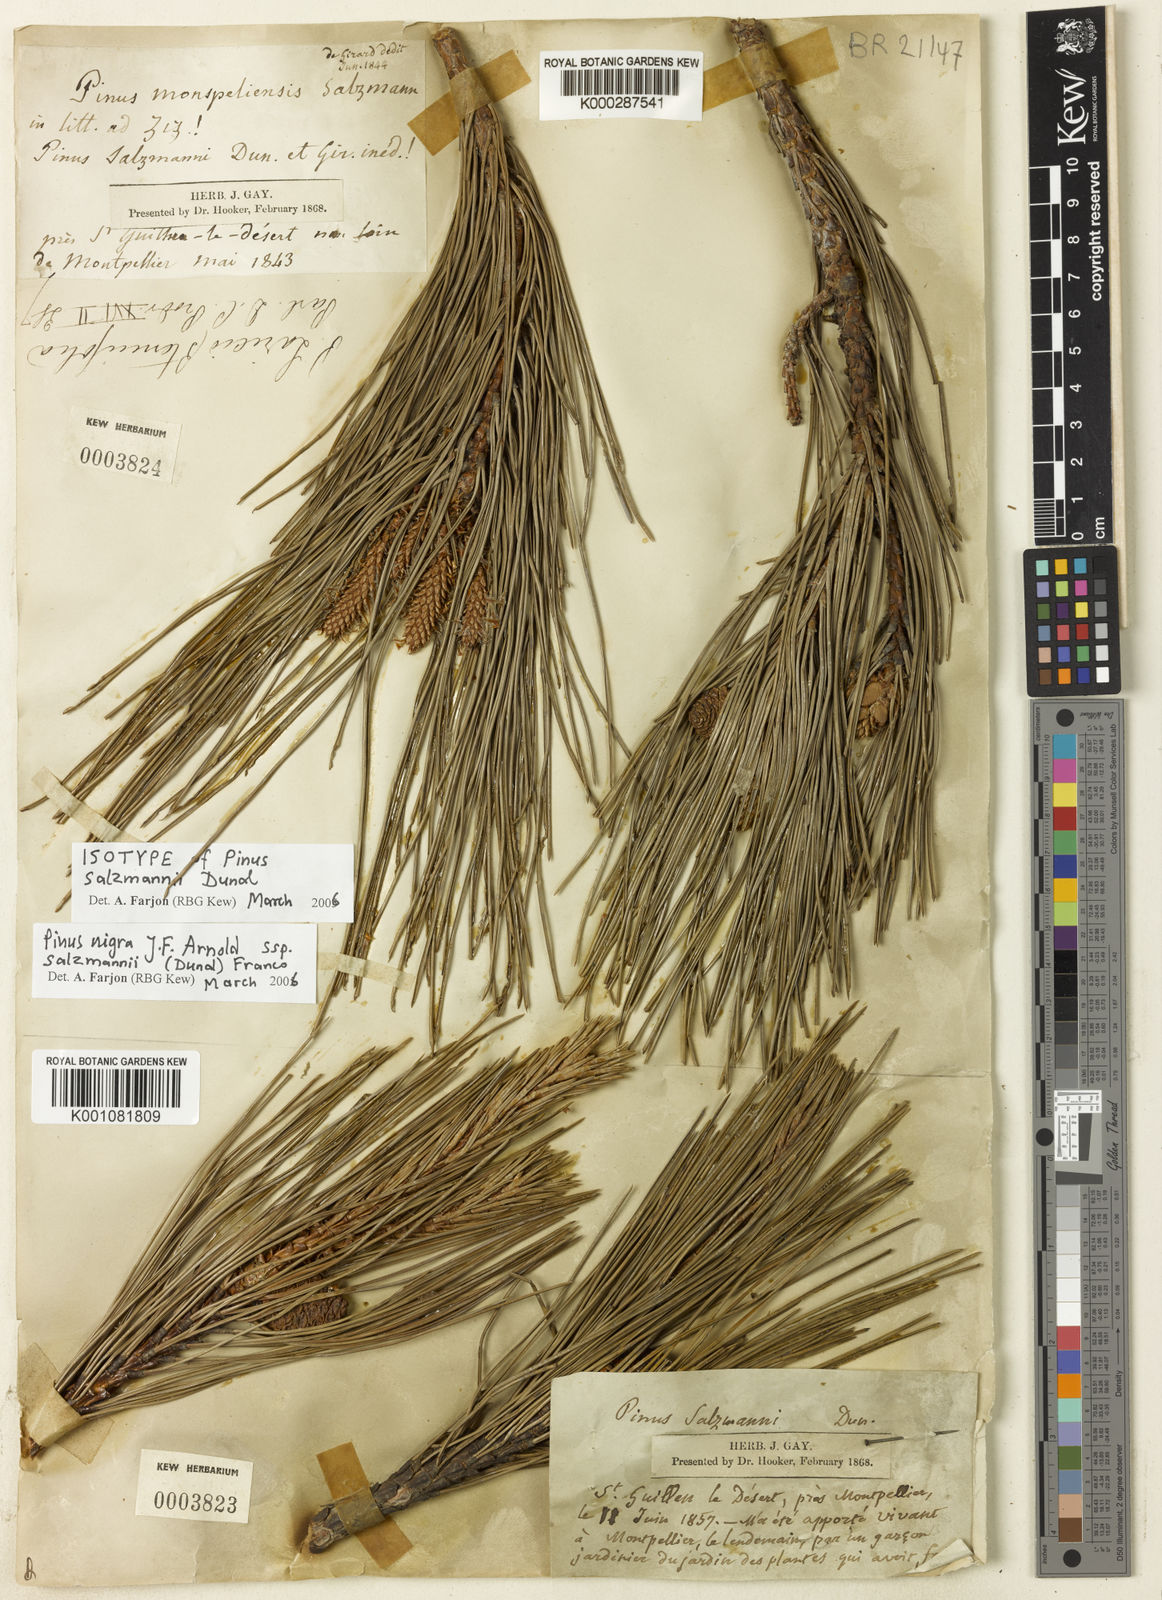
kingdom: Plantae
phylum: Tracheophyta
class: Pinopsida
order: Pinales
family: Pinaceae
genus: Pinus
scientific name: Pinus nigra
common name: Austrian pine
